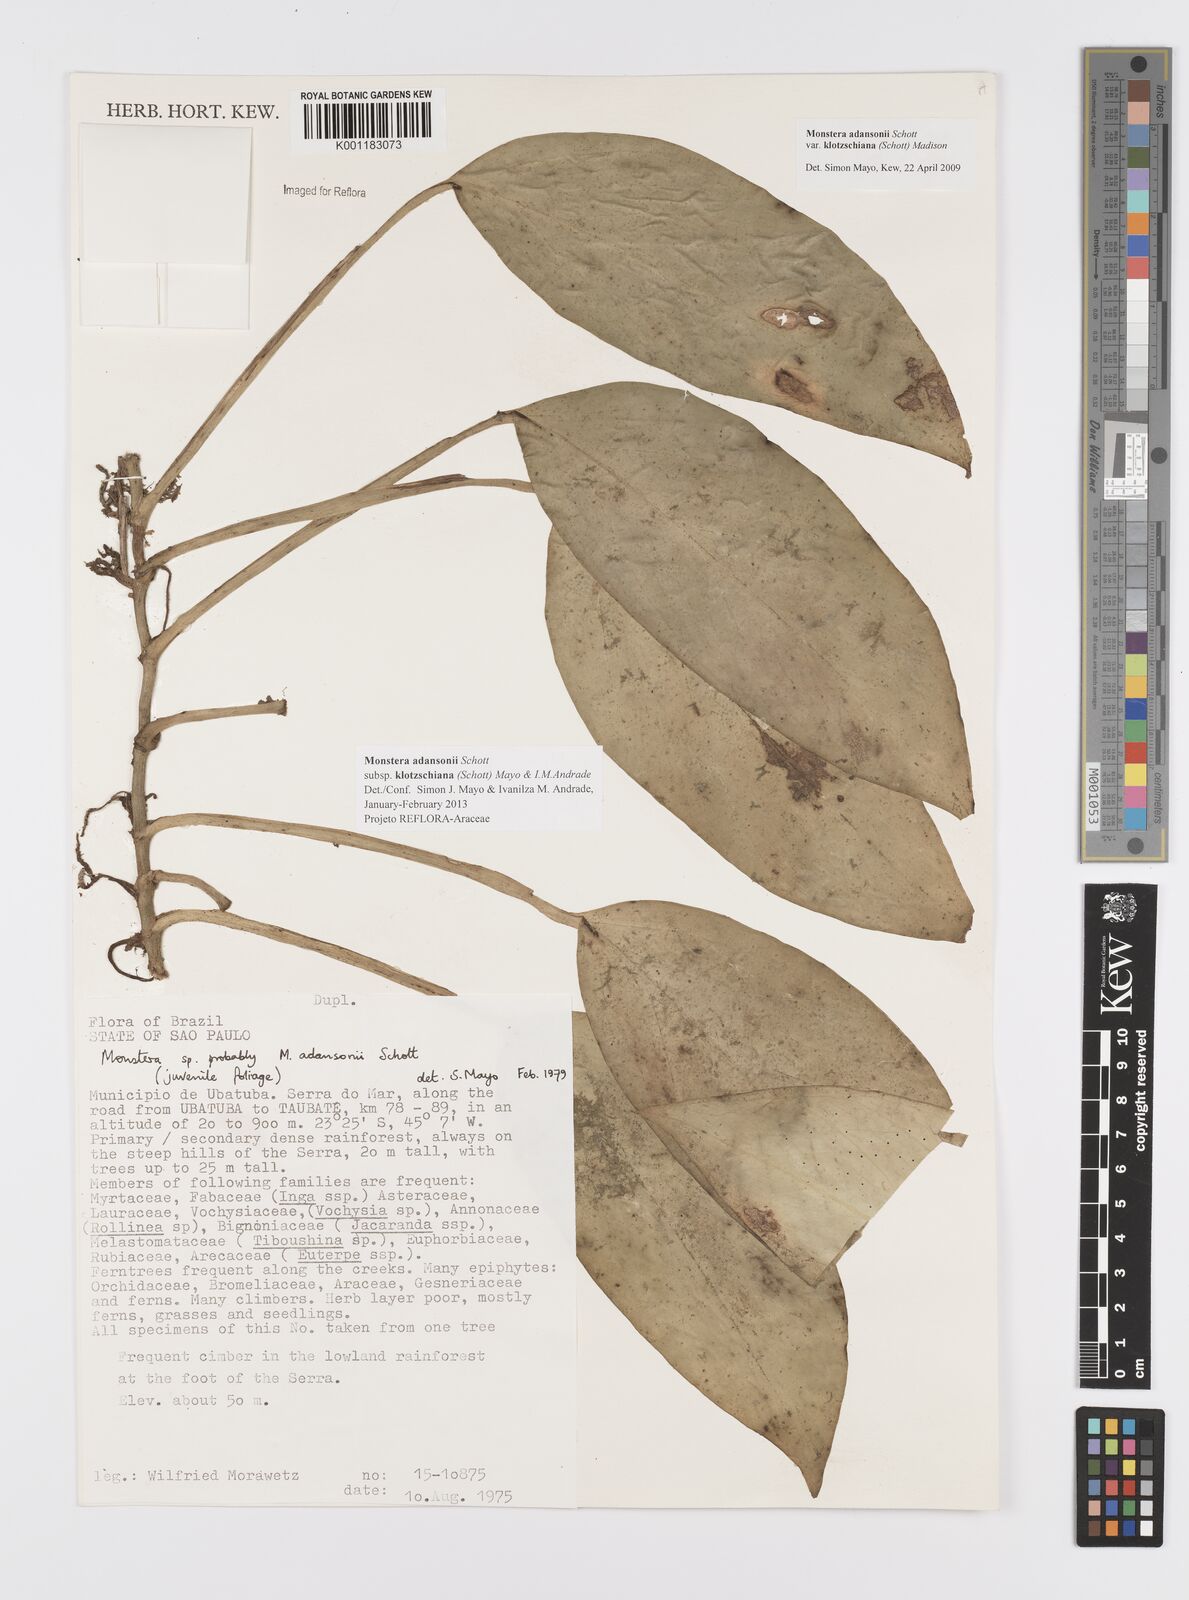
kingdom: Plantae
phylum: Tracheophyta
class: Liliopsida
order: Alismatales
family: Araceae
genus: Monstera
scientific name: Monstera adansonii
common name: Tarovine
